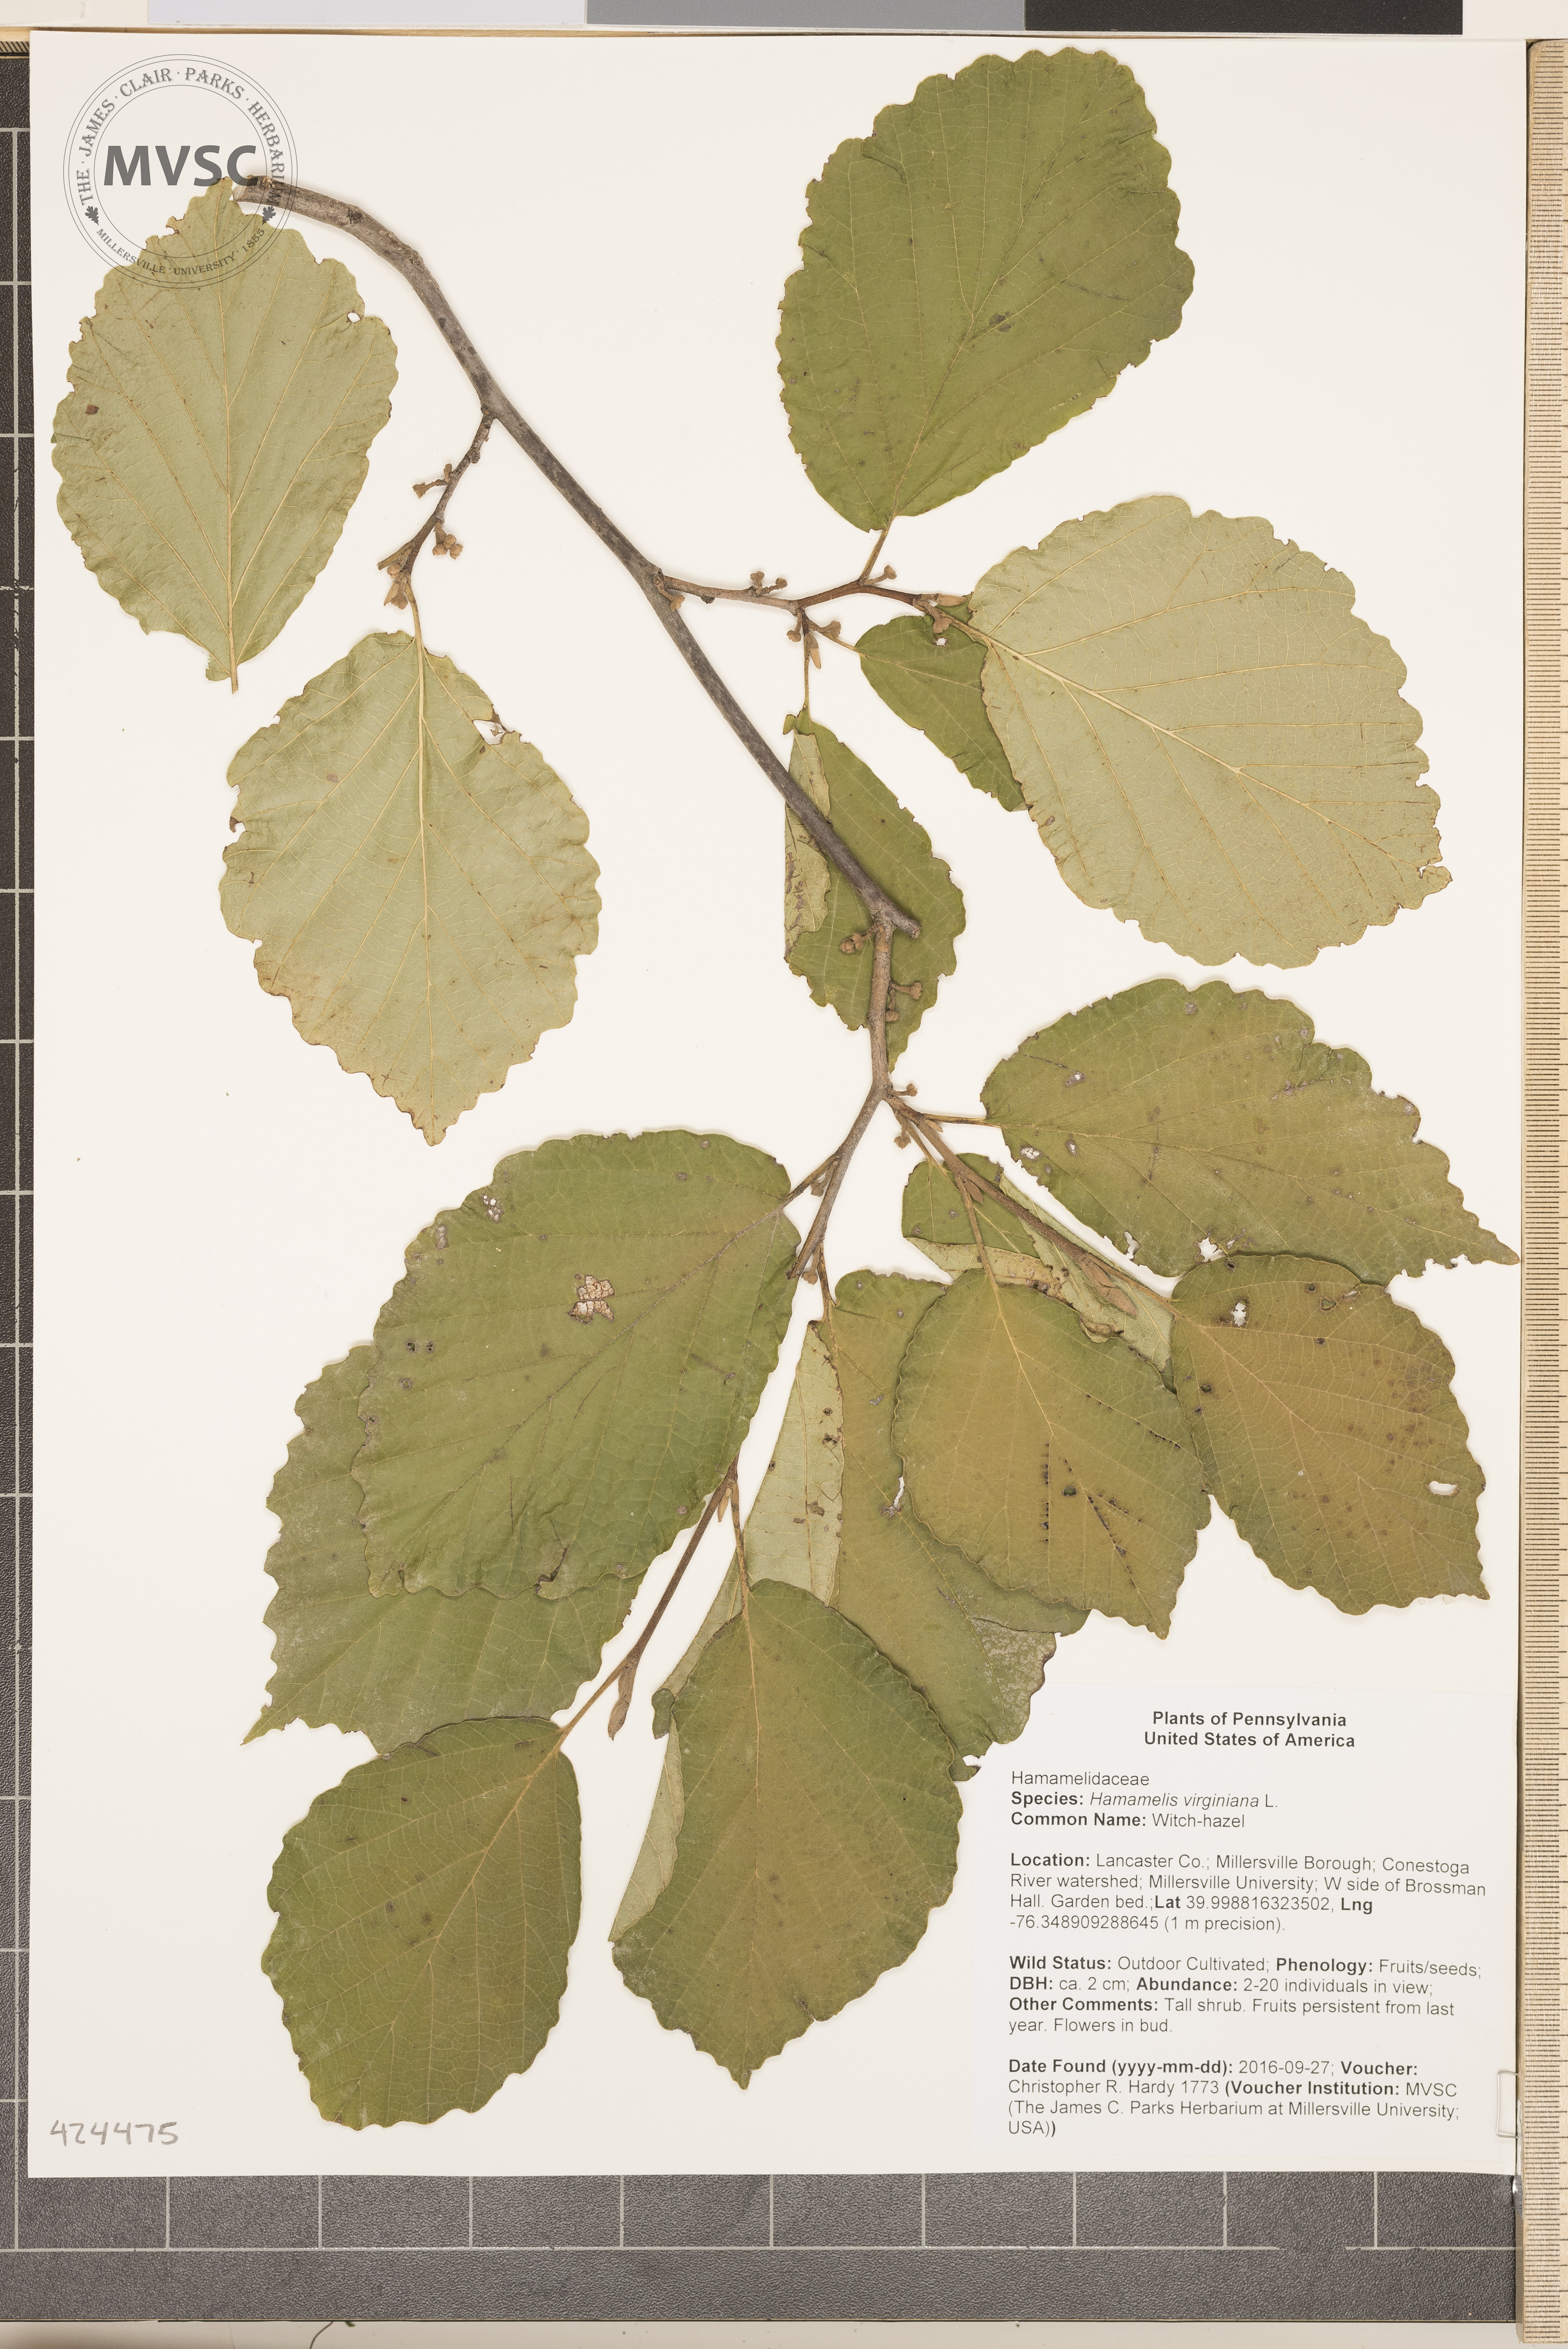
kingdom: Plantae
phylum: Tracheophyta
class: Magnoliopsida
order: Saxifragales
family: Hamamelidaceae
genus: Hamamelis
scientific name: Hamamelis virginiana
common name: Witch-hazel
